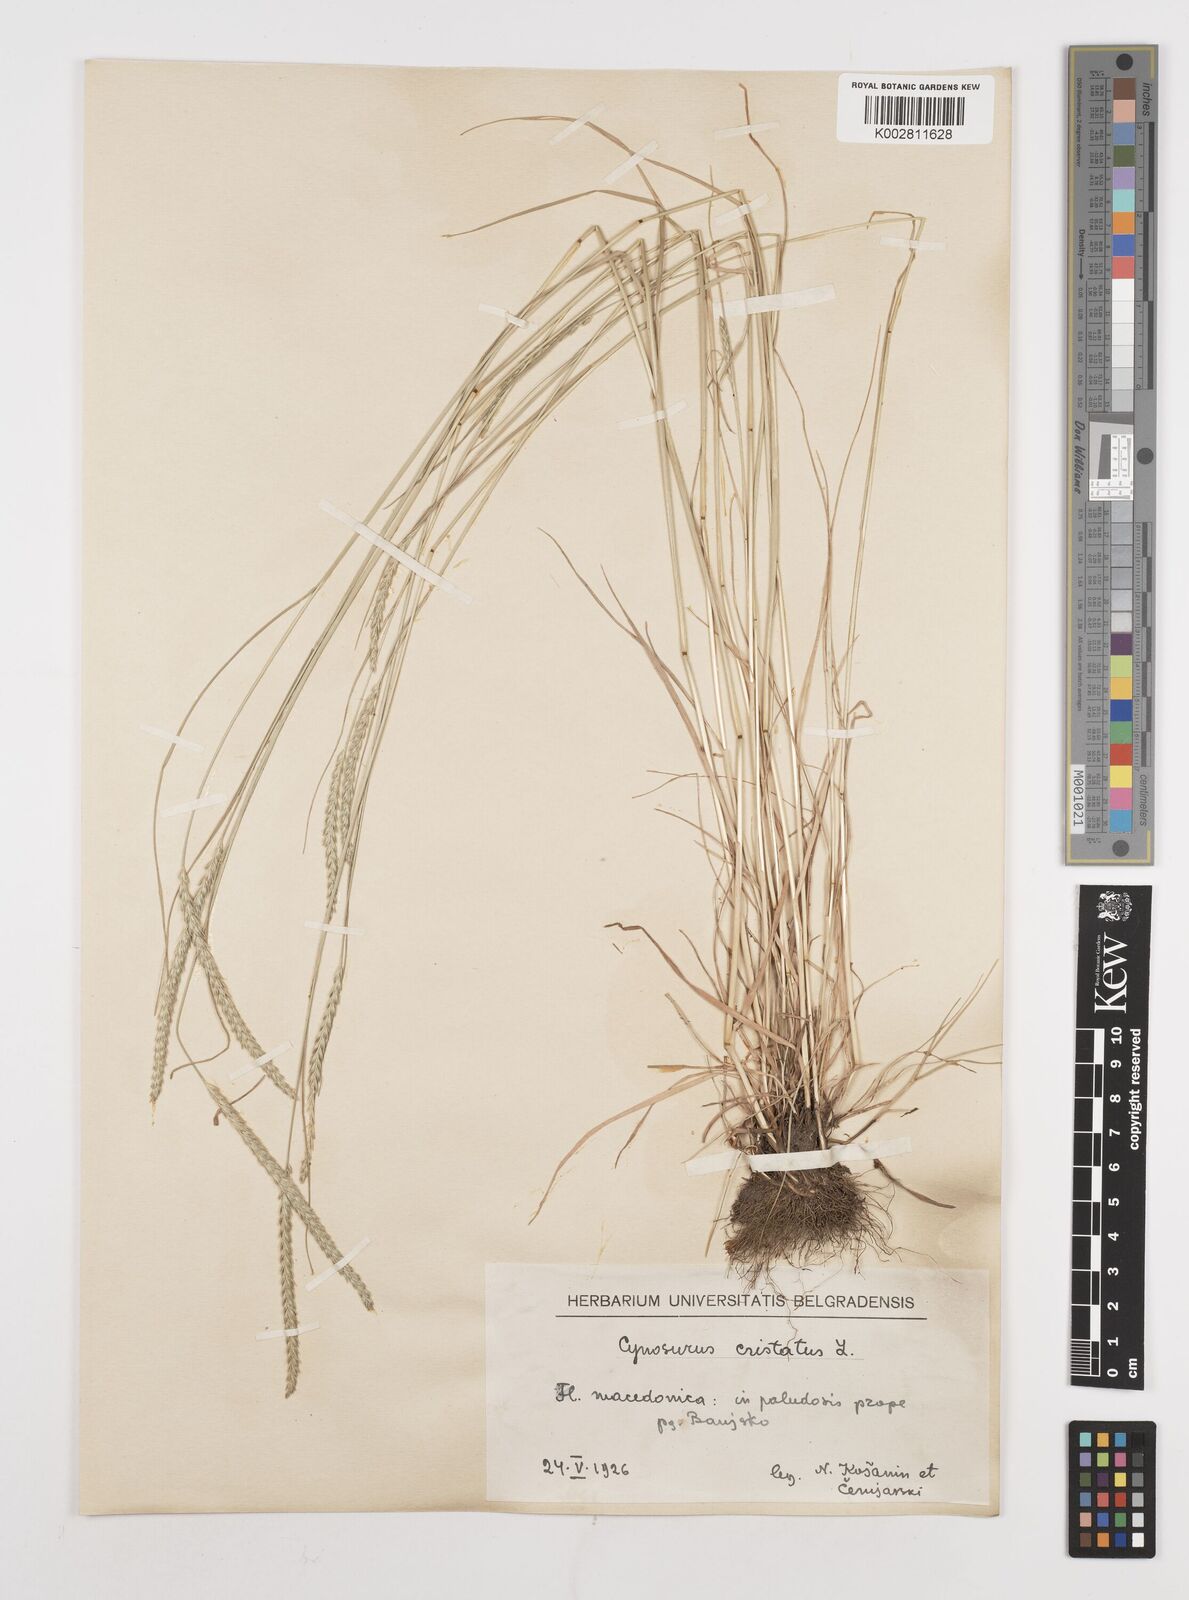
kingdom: Plantae
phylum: Tracheophyta
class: Liliopsida
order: Poales
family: Poaceae
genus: Cynosurus
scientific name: Cynosurus cristatus
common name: Crested dog's-tail
